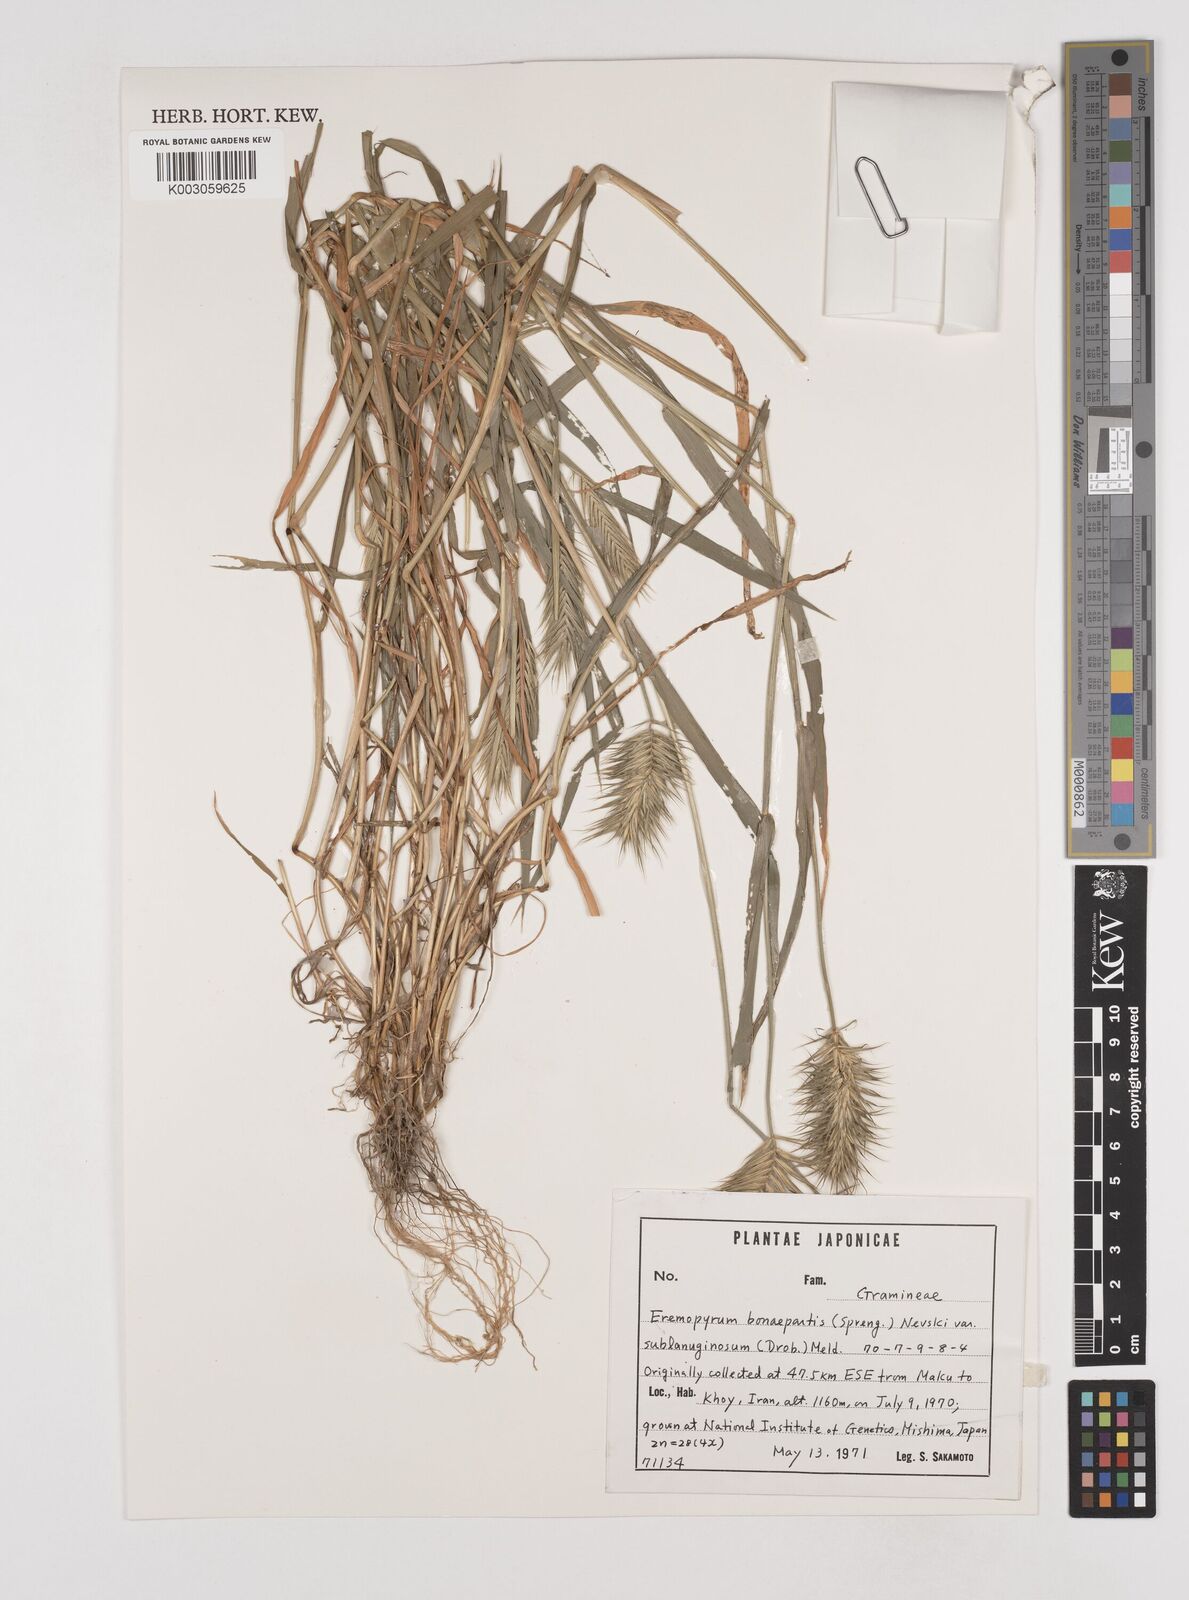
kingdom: Plantae
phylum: Tracheophyta
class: Liliopsida
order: Poales
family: Poaceae
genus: Eremopyrum
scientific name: Eremopyrum bonaepartis
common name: Tapertip false wheatgrass
